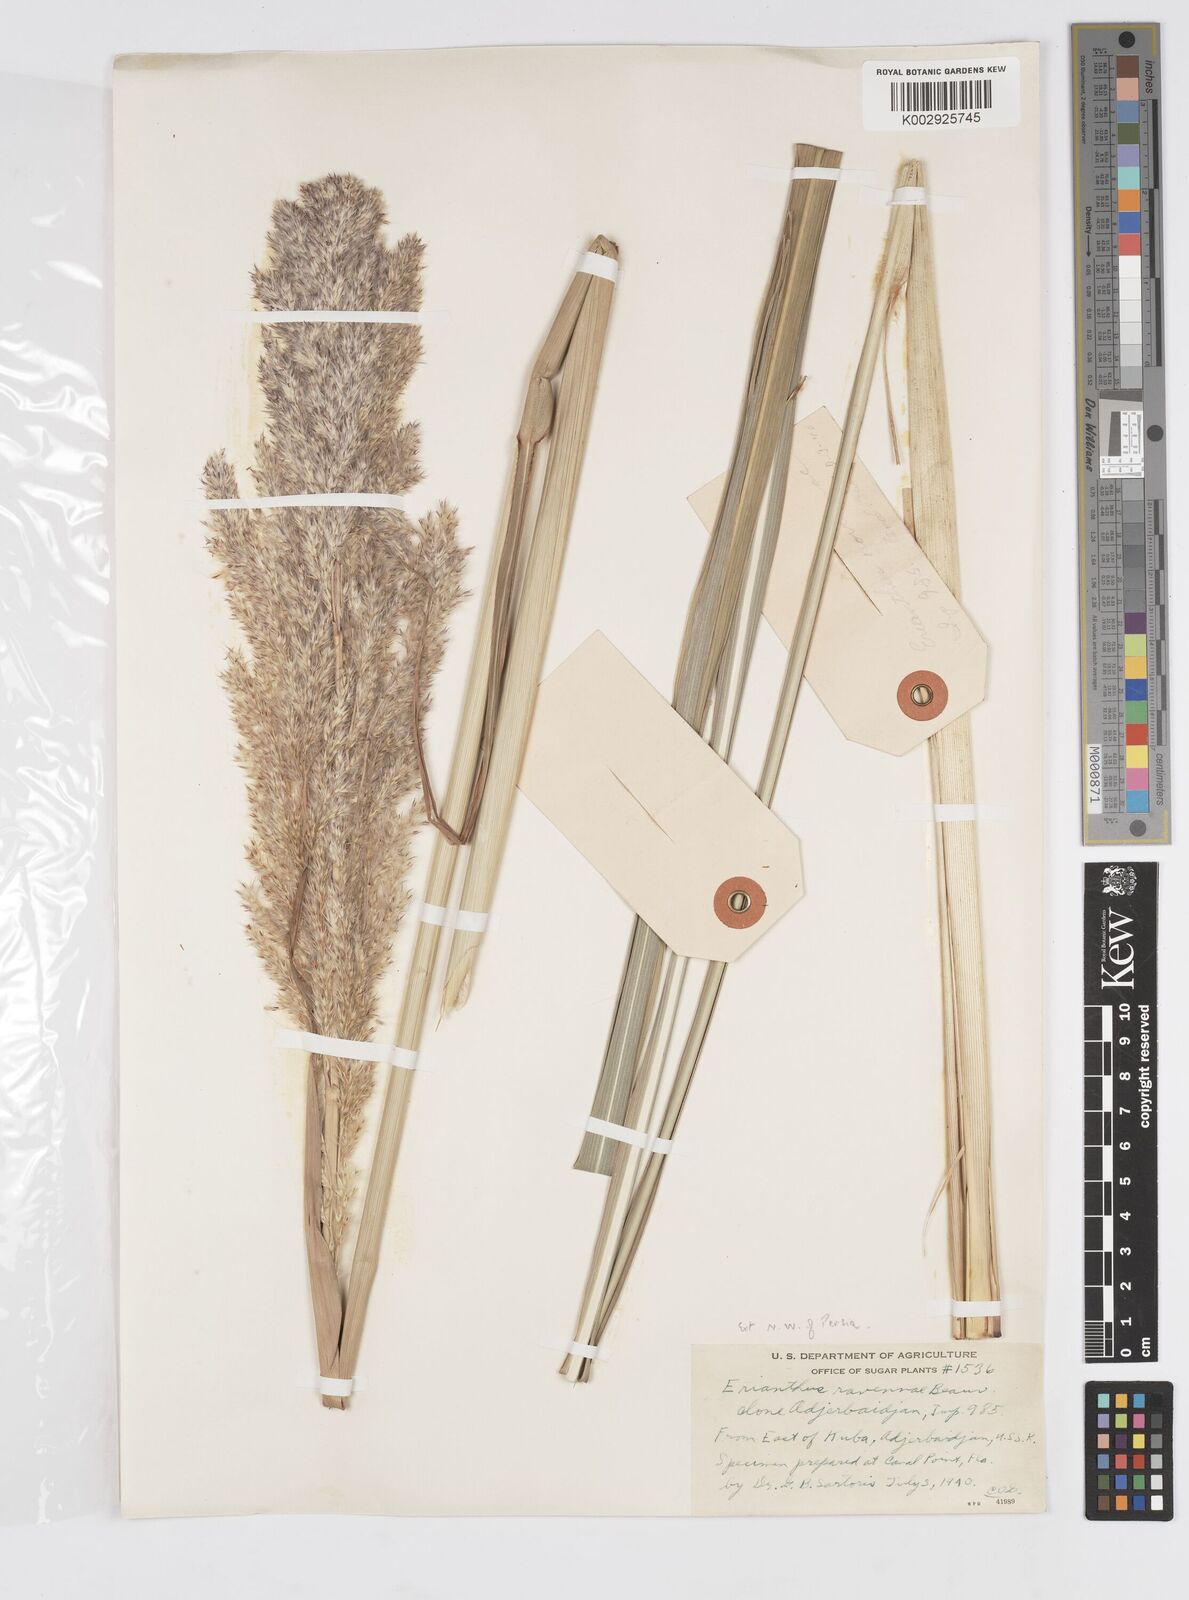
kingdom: Plantae
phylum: Tracheophyta
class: Liliopsida
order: Poales
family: Poaceae
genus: Tripidium
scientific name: Tripidium ravennae
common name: Ravenna grass
